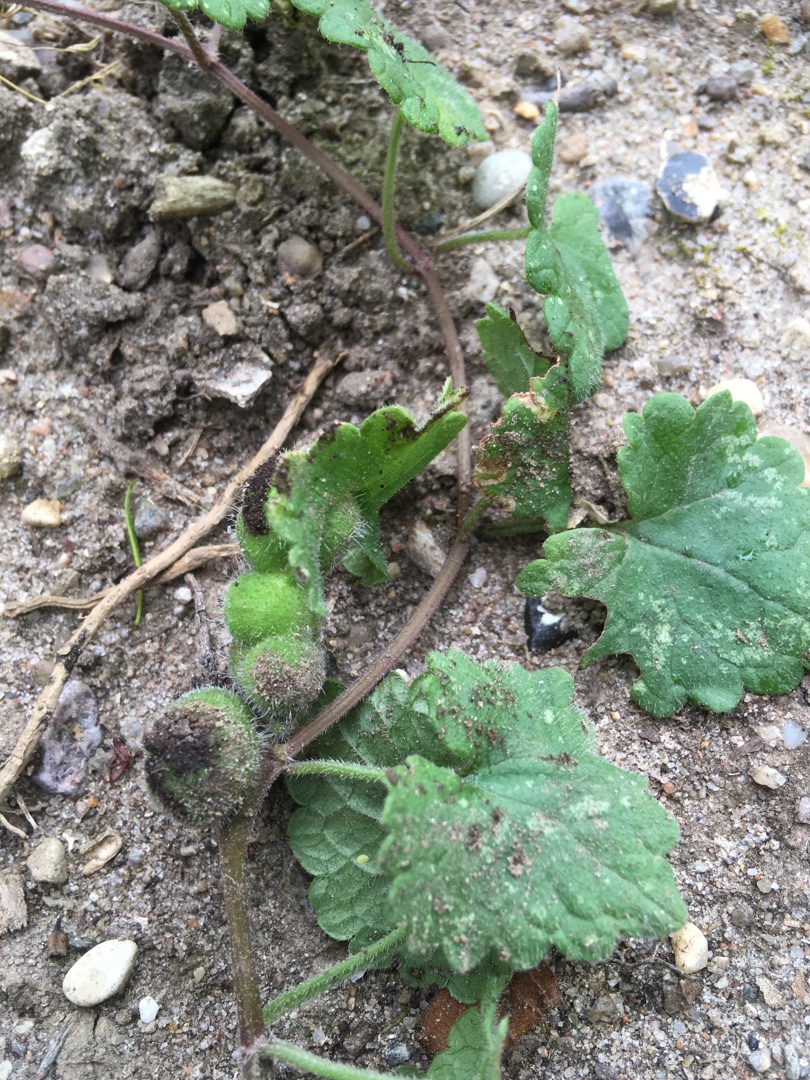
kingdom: Plantae
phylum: Tracheophyta
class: Magnoliopsida
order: Lamiales
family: Lamiaceae
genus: Glechoma
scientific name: Glechoma hederacea
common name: Korsknap
